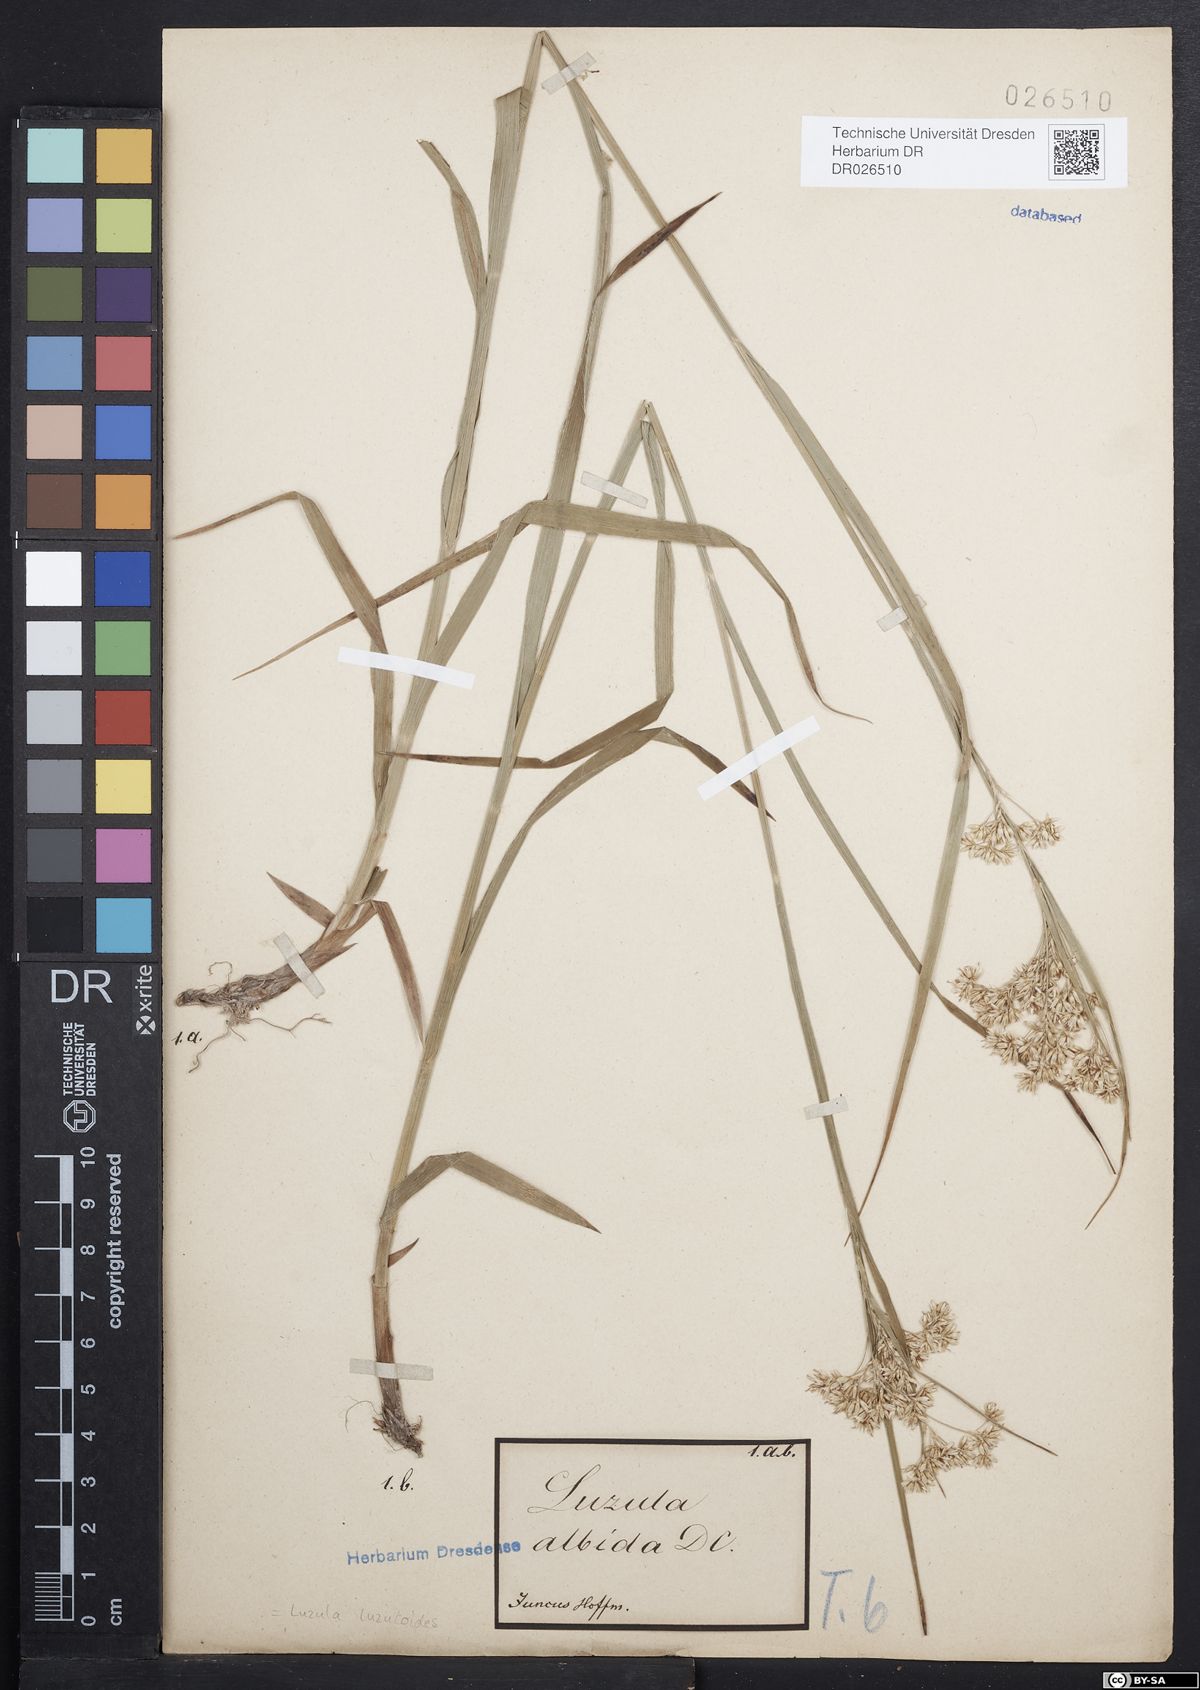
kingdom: Plantae
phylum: Tracheophyta
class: Liliopsida
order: Poales
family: Juncaceae
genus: Luzula
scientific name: Luzula luzuloides
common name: White wood-rush
